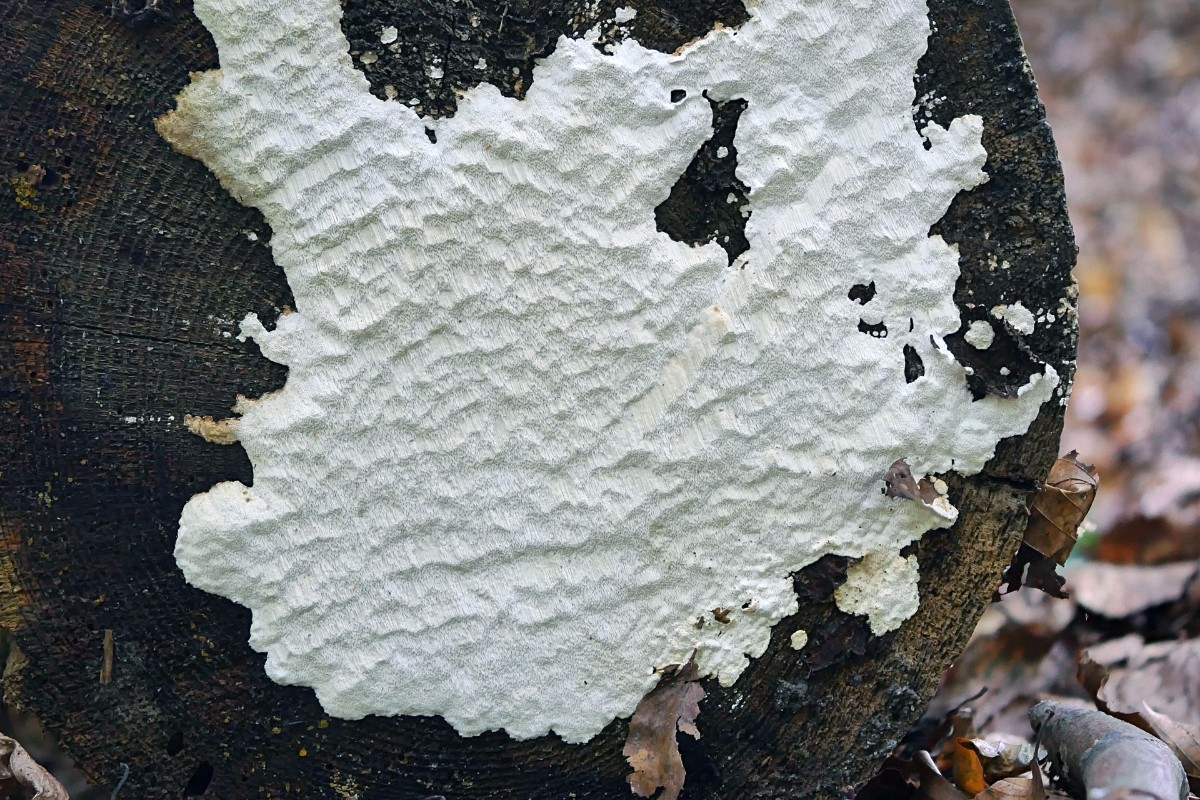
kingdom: Fungi
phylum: Basidiomycota
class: Agaricomycetes
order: Polyporales
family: Fomitopsidaceae
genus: Neoantrodia
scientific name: Neoantrodia serialis
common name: række-sejporesvamp
